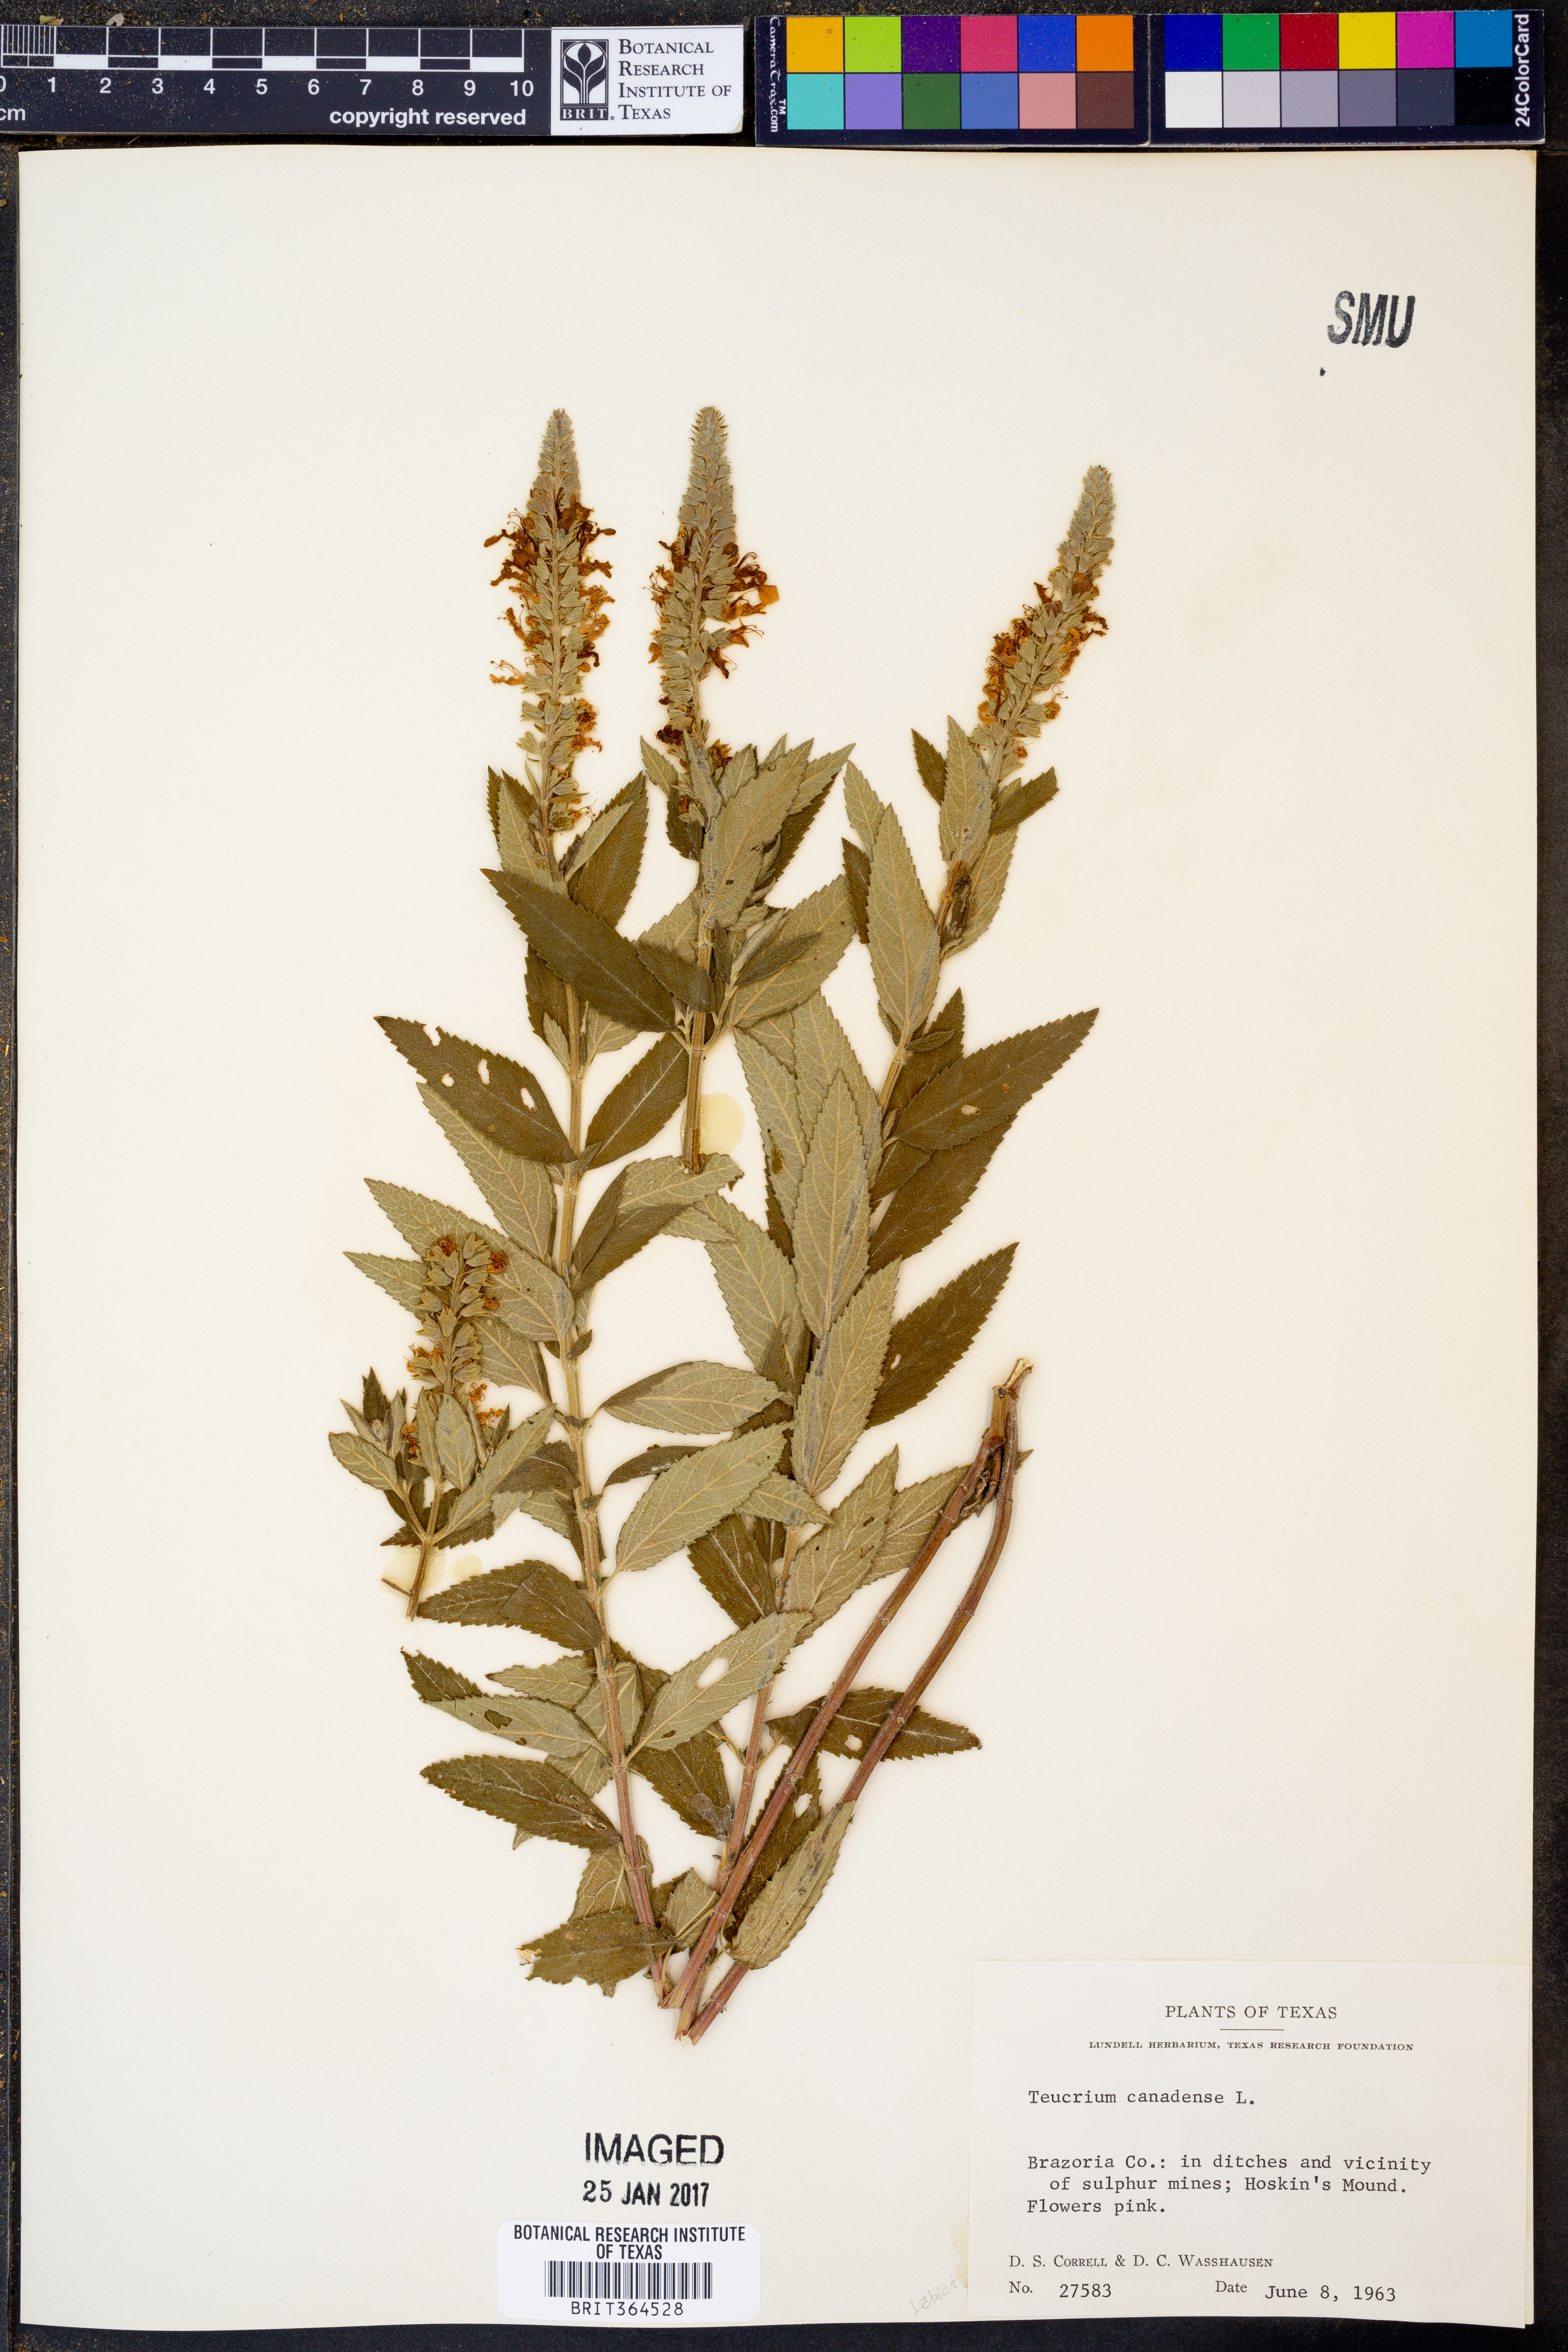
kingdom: Plantae
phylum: Tracheophyta
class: Magnoliopsida
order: Lamiales
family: Lamiaceae
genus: Teucrium
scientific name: Teucrium canadense
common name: American germander
